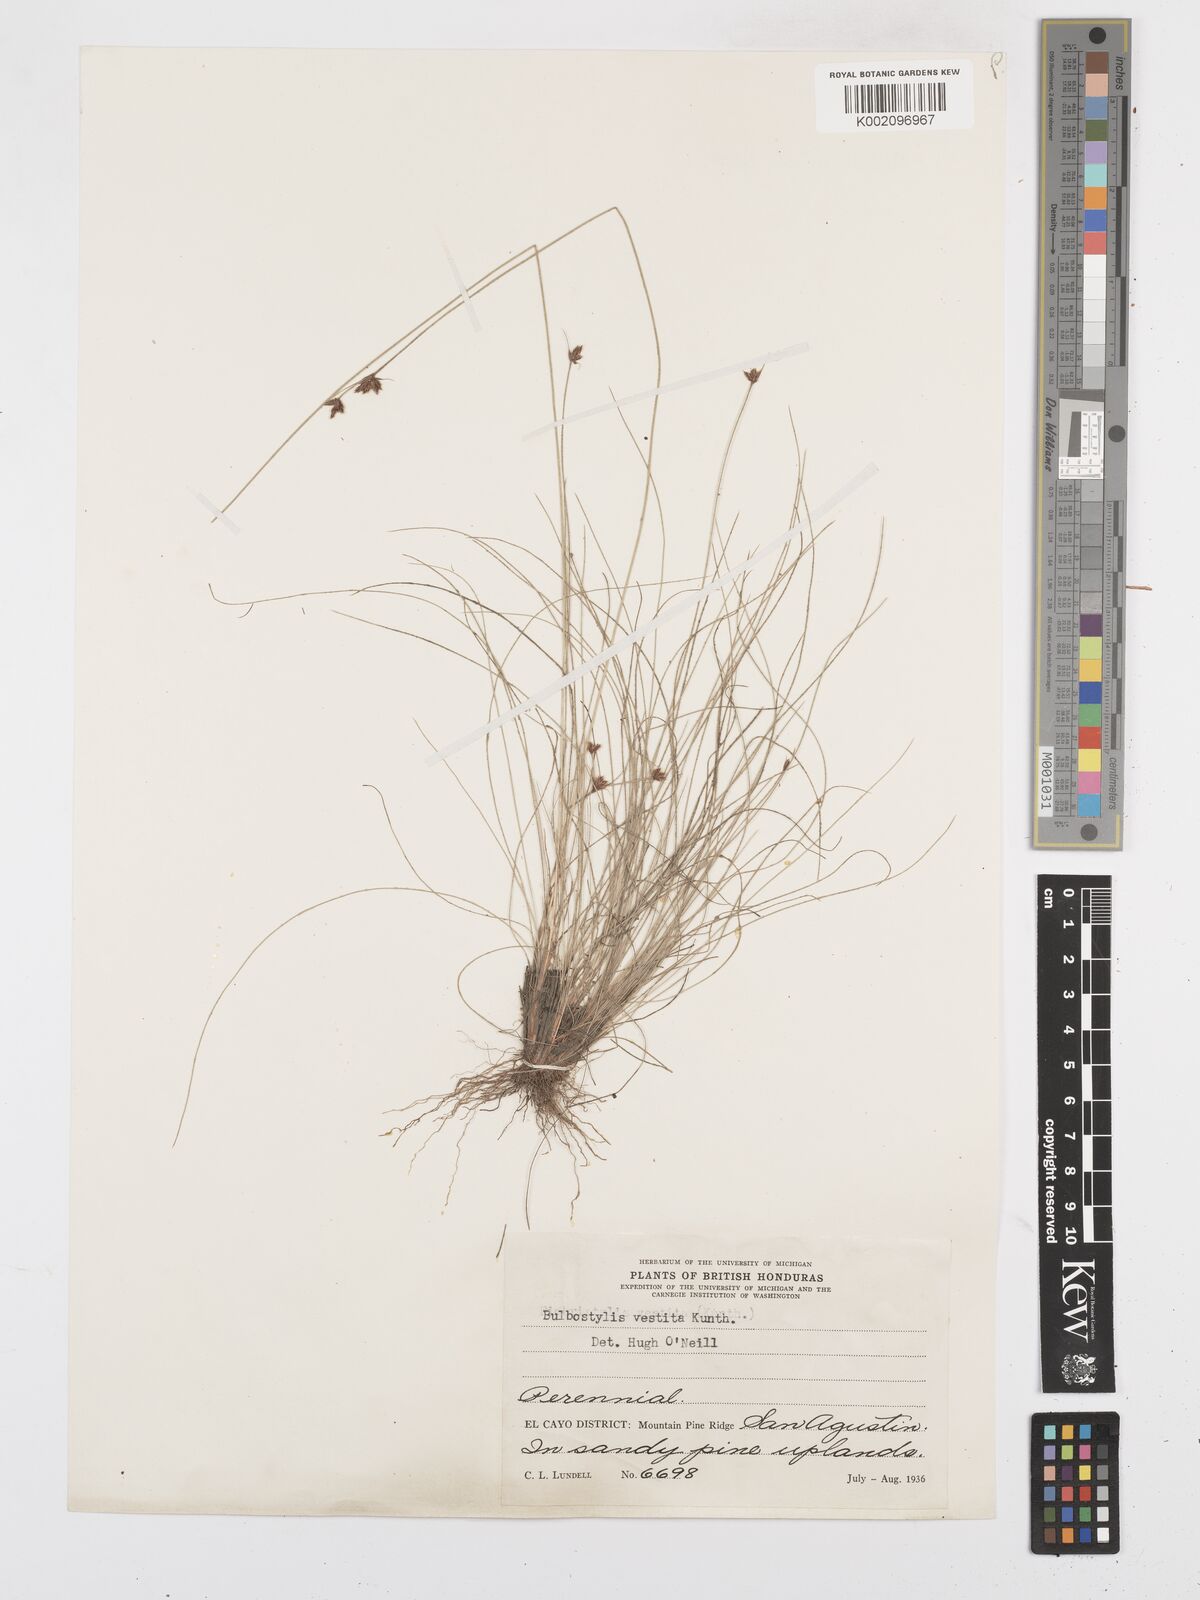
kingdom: Plantae
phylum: Tracheophyta
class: Liliopsida
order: Poales
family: Cyperaceae
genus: Bulbostylis
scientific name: Bulbostylis vestita
